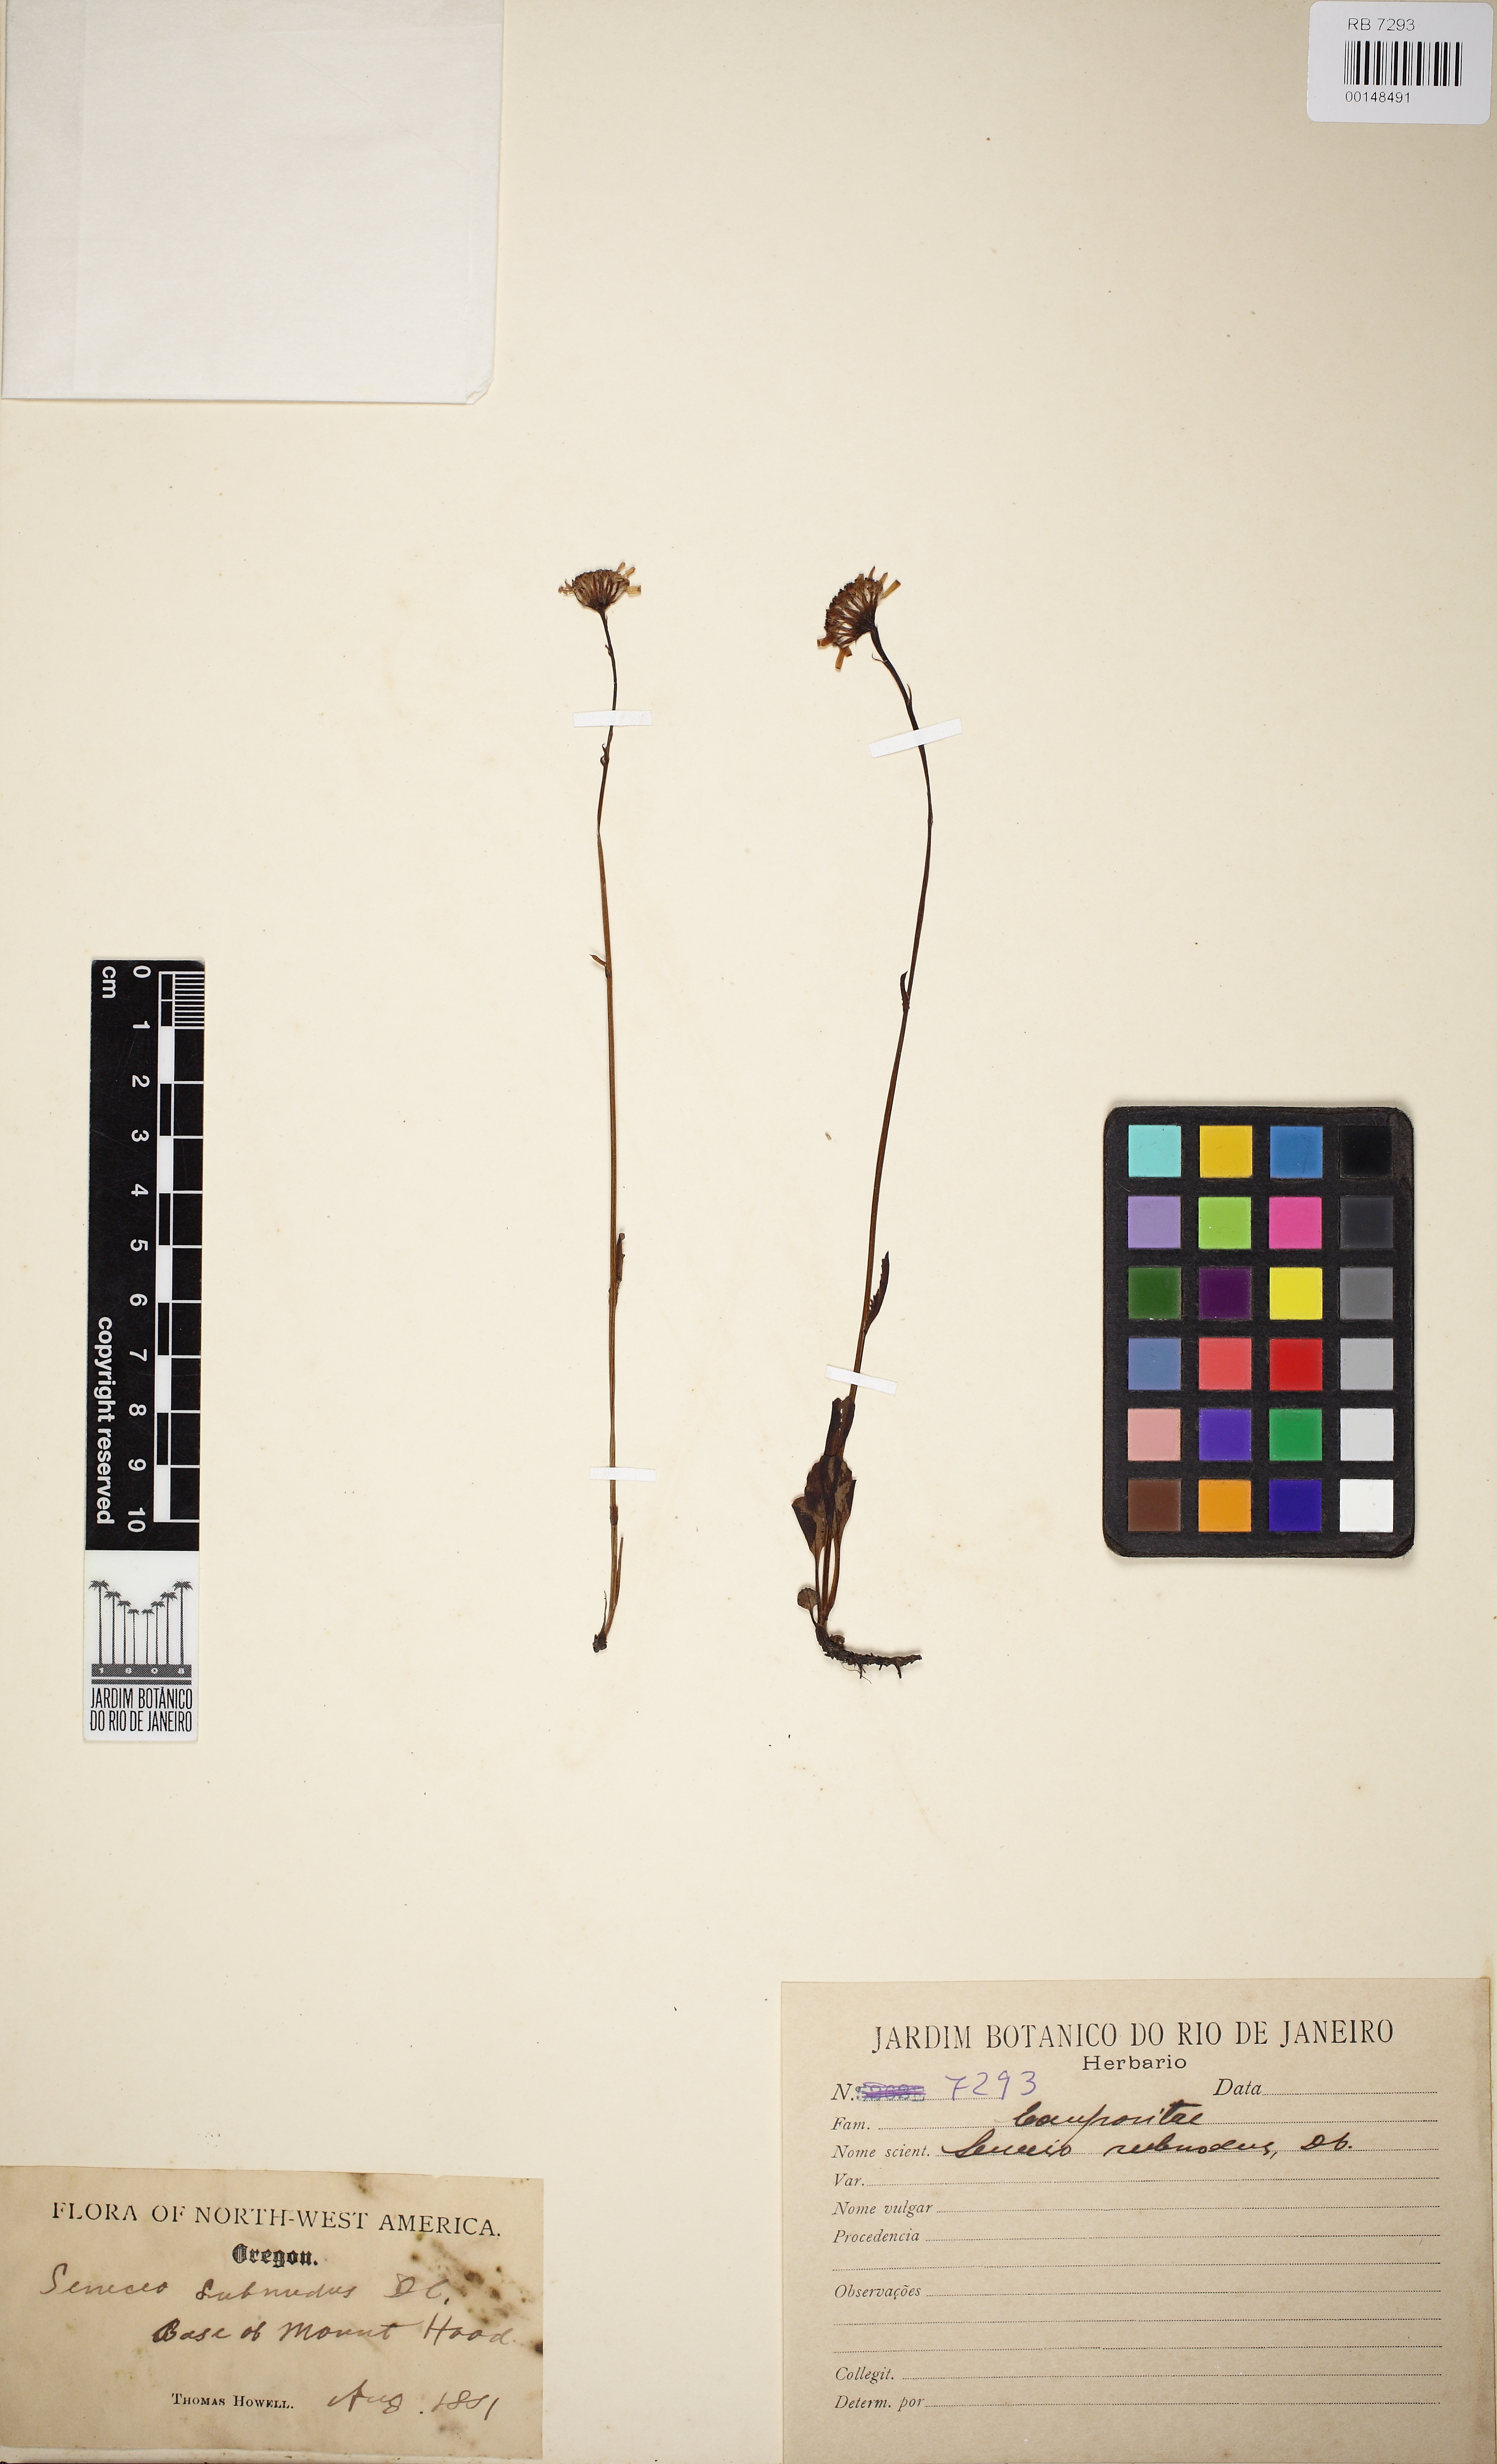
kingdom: Plantae
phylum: Tracheophyta
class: Magnoliopsida
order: Fabales
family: Fabaceae
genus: Phaseolus
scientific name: Phaseolus
